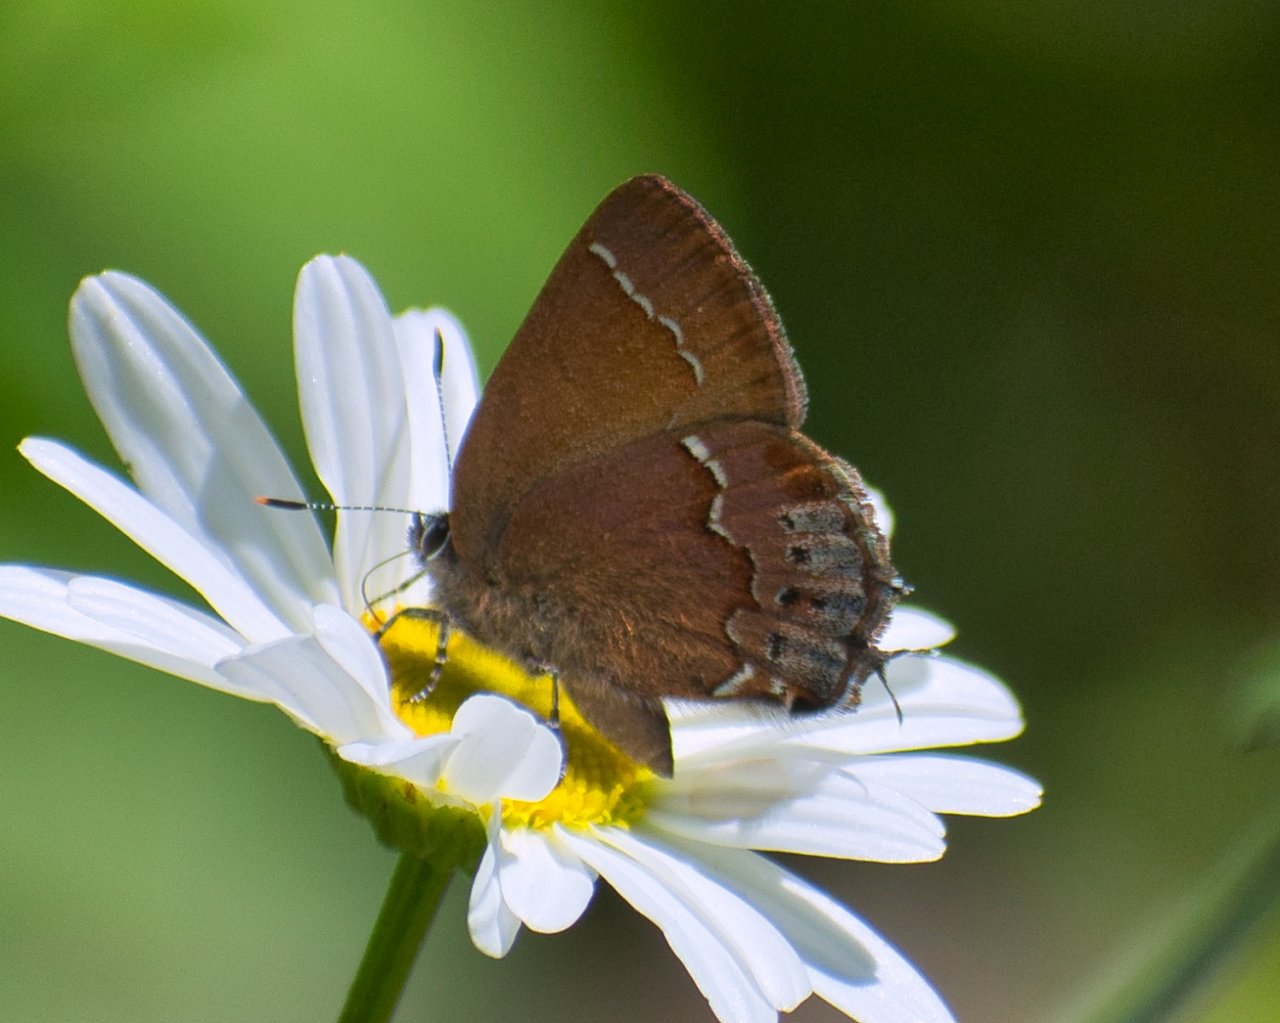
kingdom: Animalia
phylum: Arthropoda
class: Insecta
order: Lepidoptera
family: Lycaenidae
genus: Mitoura
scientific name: Mitoura gryneus
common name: Juniper Hairstreak
